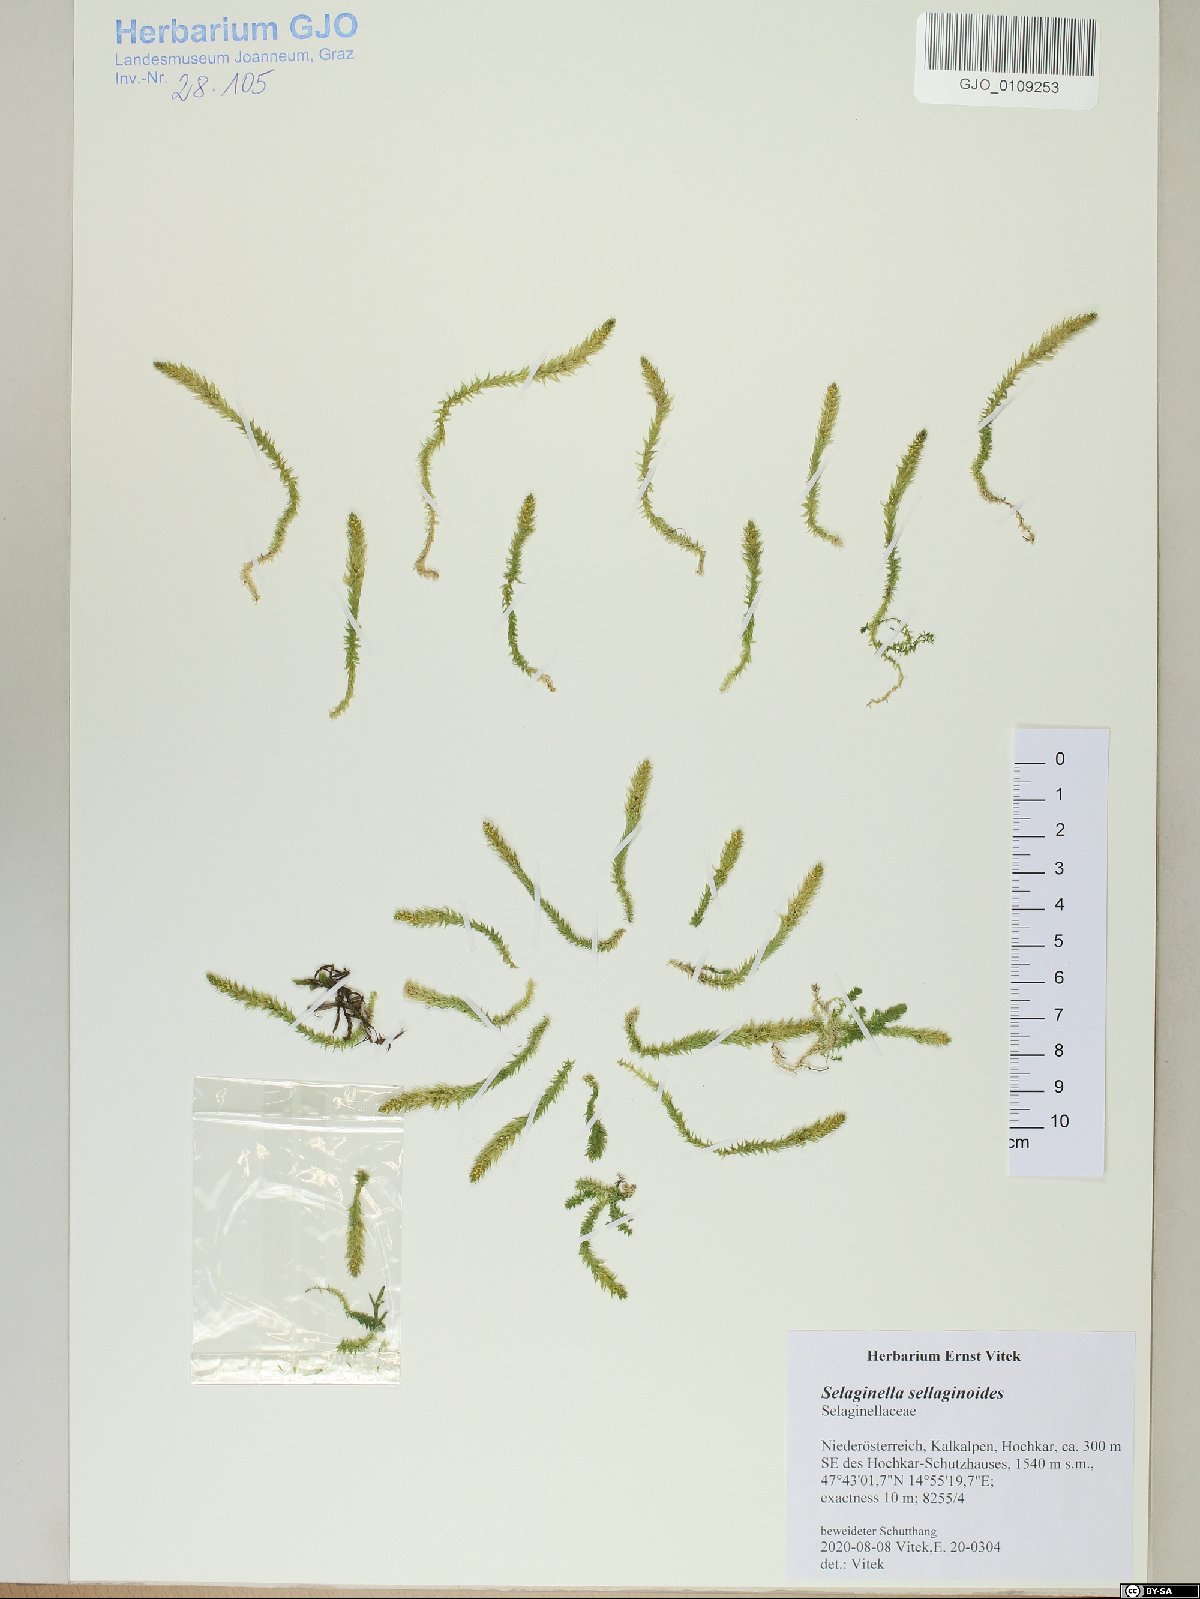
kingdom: Plantae
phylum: Tracheophyta
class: Liliopsida
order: Poales
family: Poaceae
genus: Trisetum
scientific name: Trisetum macrotrichum
